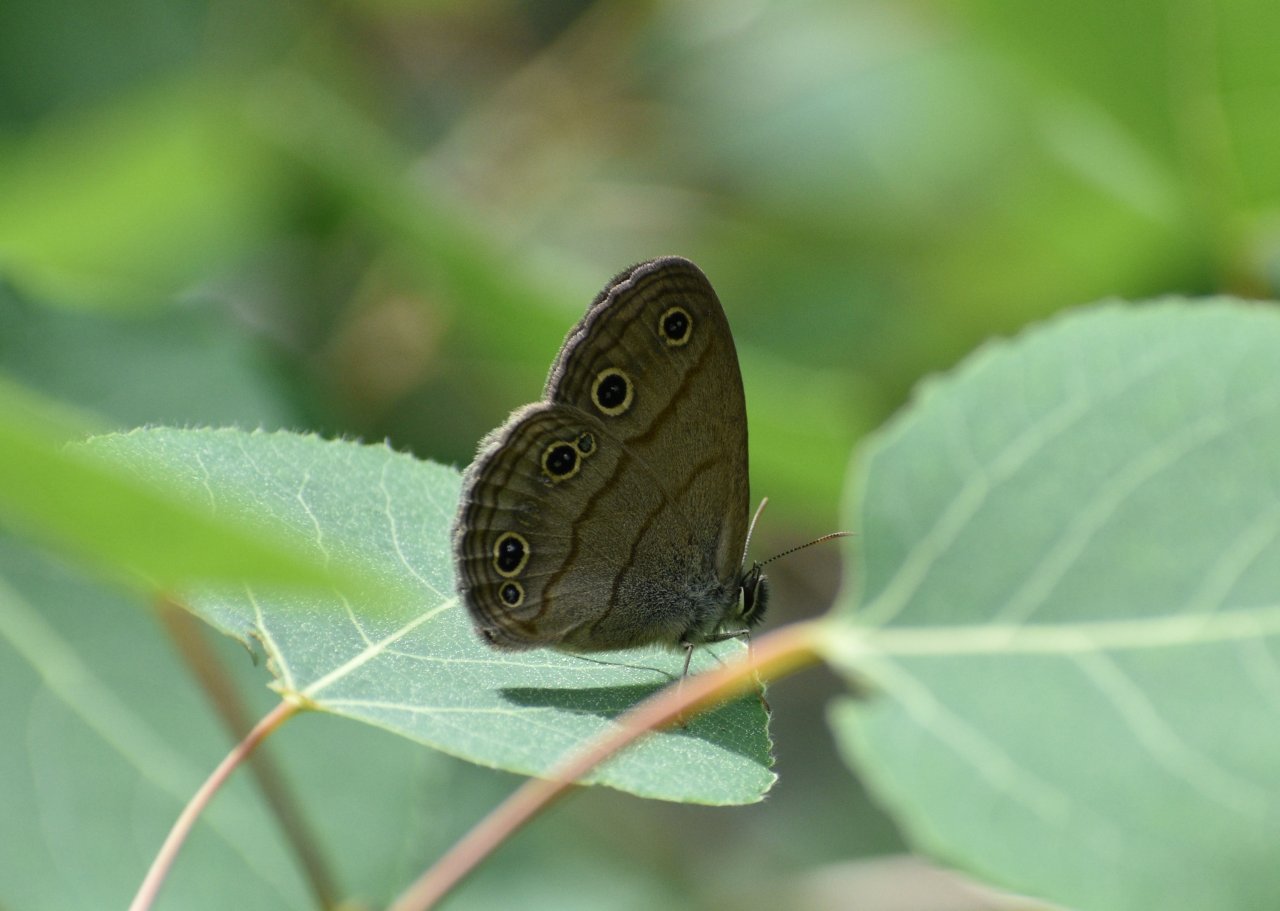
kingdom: Animalia
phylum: Arthropoda
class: Insecta
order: Lepidoptera
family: Nymphalidae
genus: Euptychia
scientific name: Euptychia cymela
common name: Little Wood Satyr
